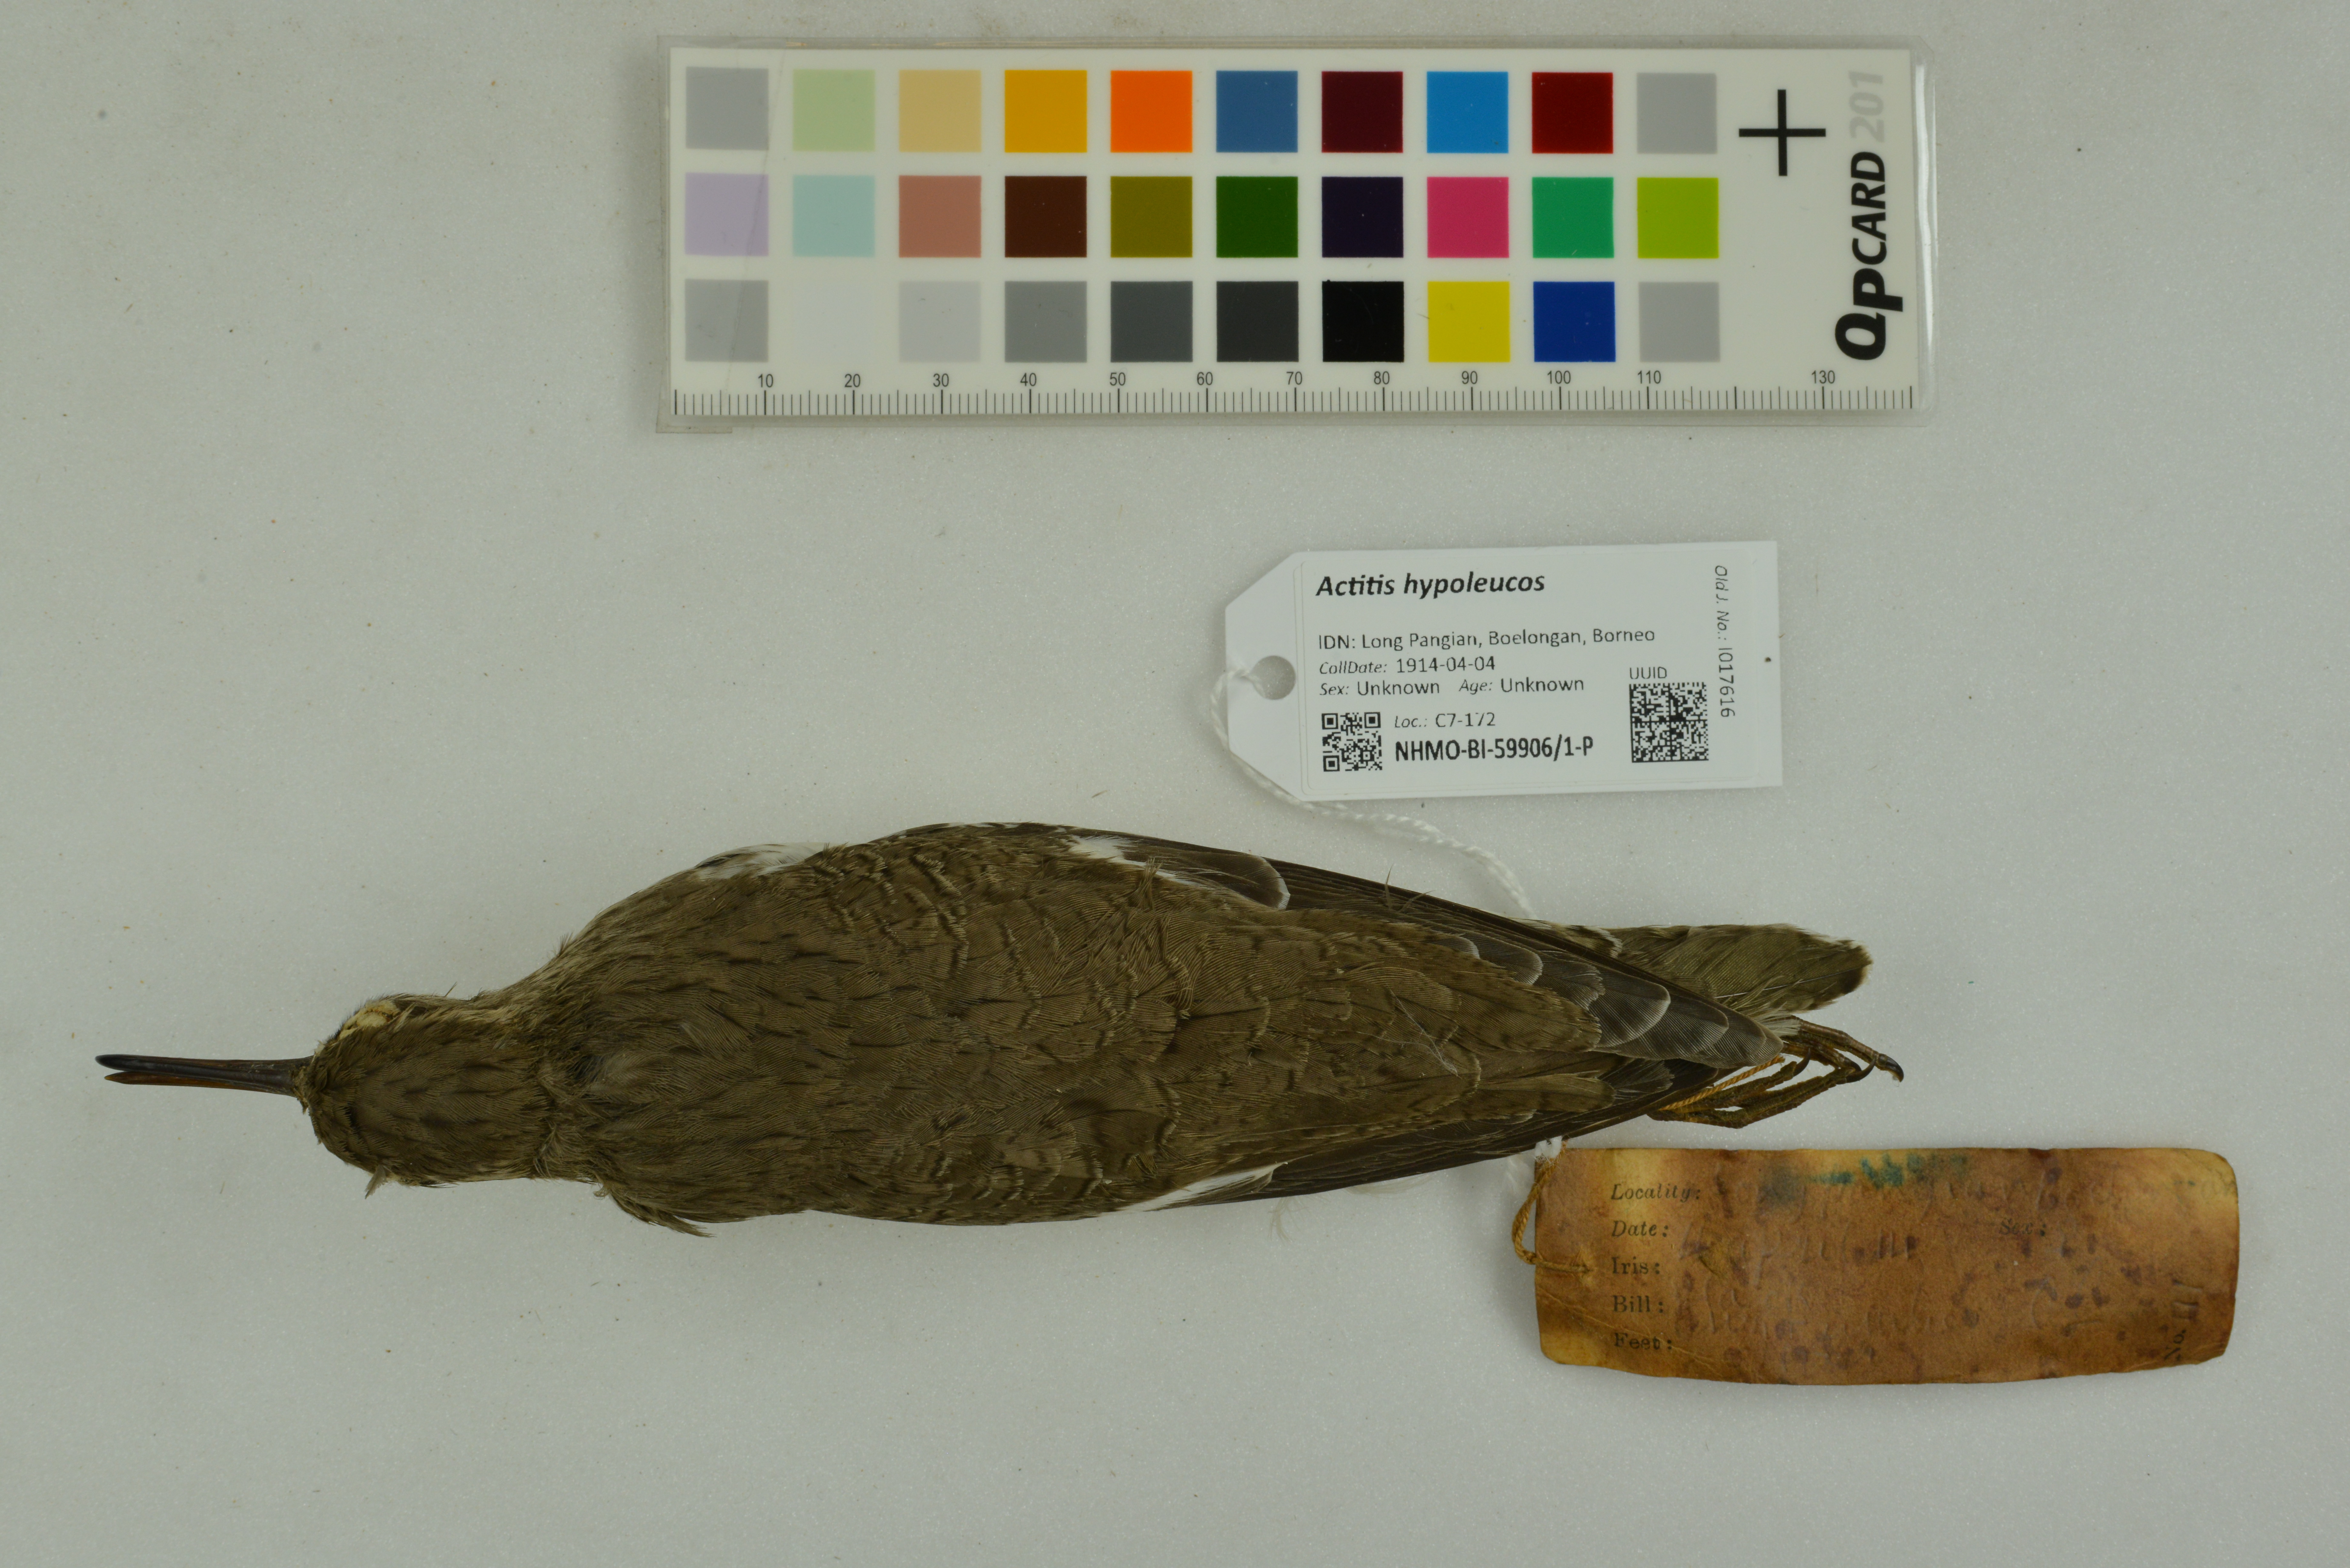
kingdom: Animalia
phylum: Chordata
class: Aves
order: Charadriiformes
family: Scolopacidae
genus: Actitis
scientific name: Actitis hypoleucos
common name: Common sandpiper
